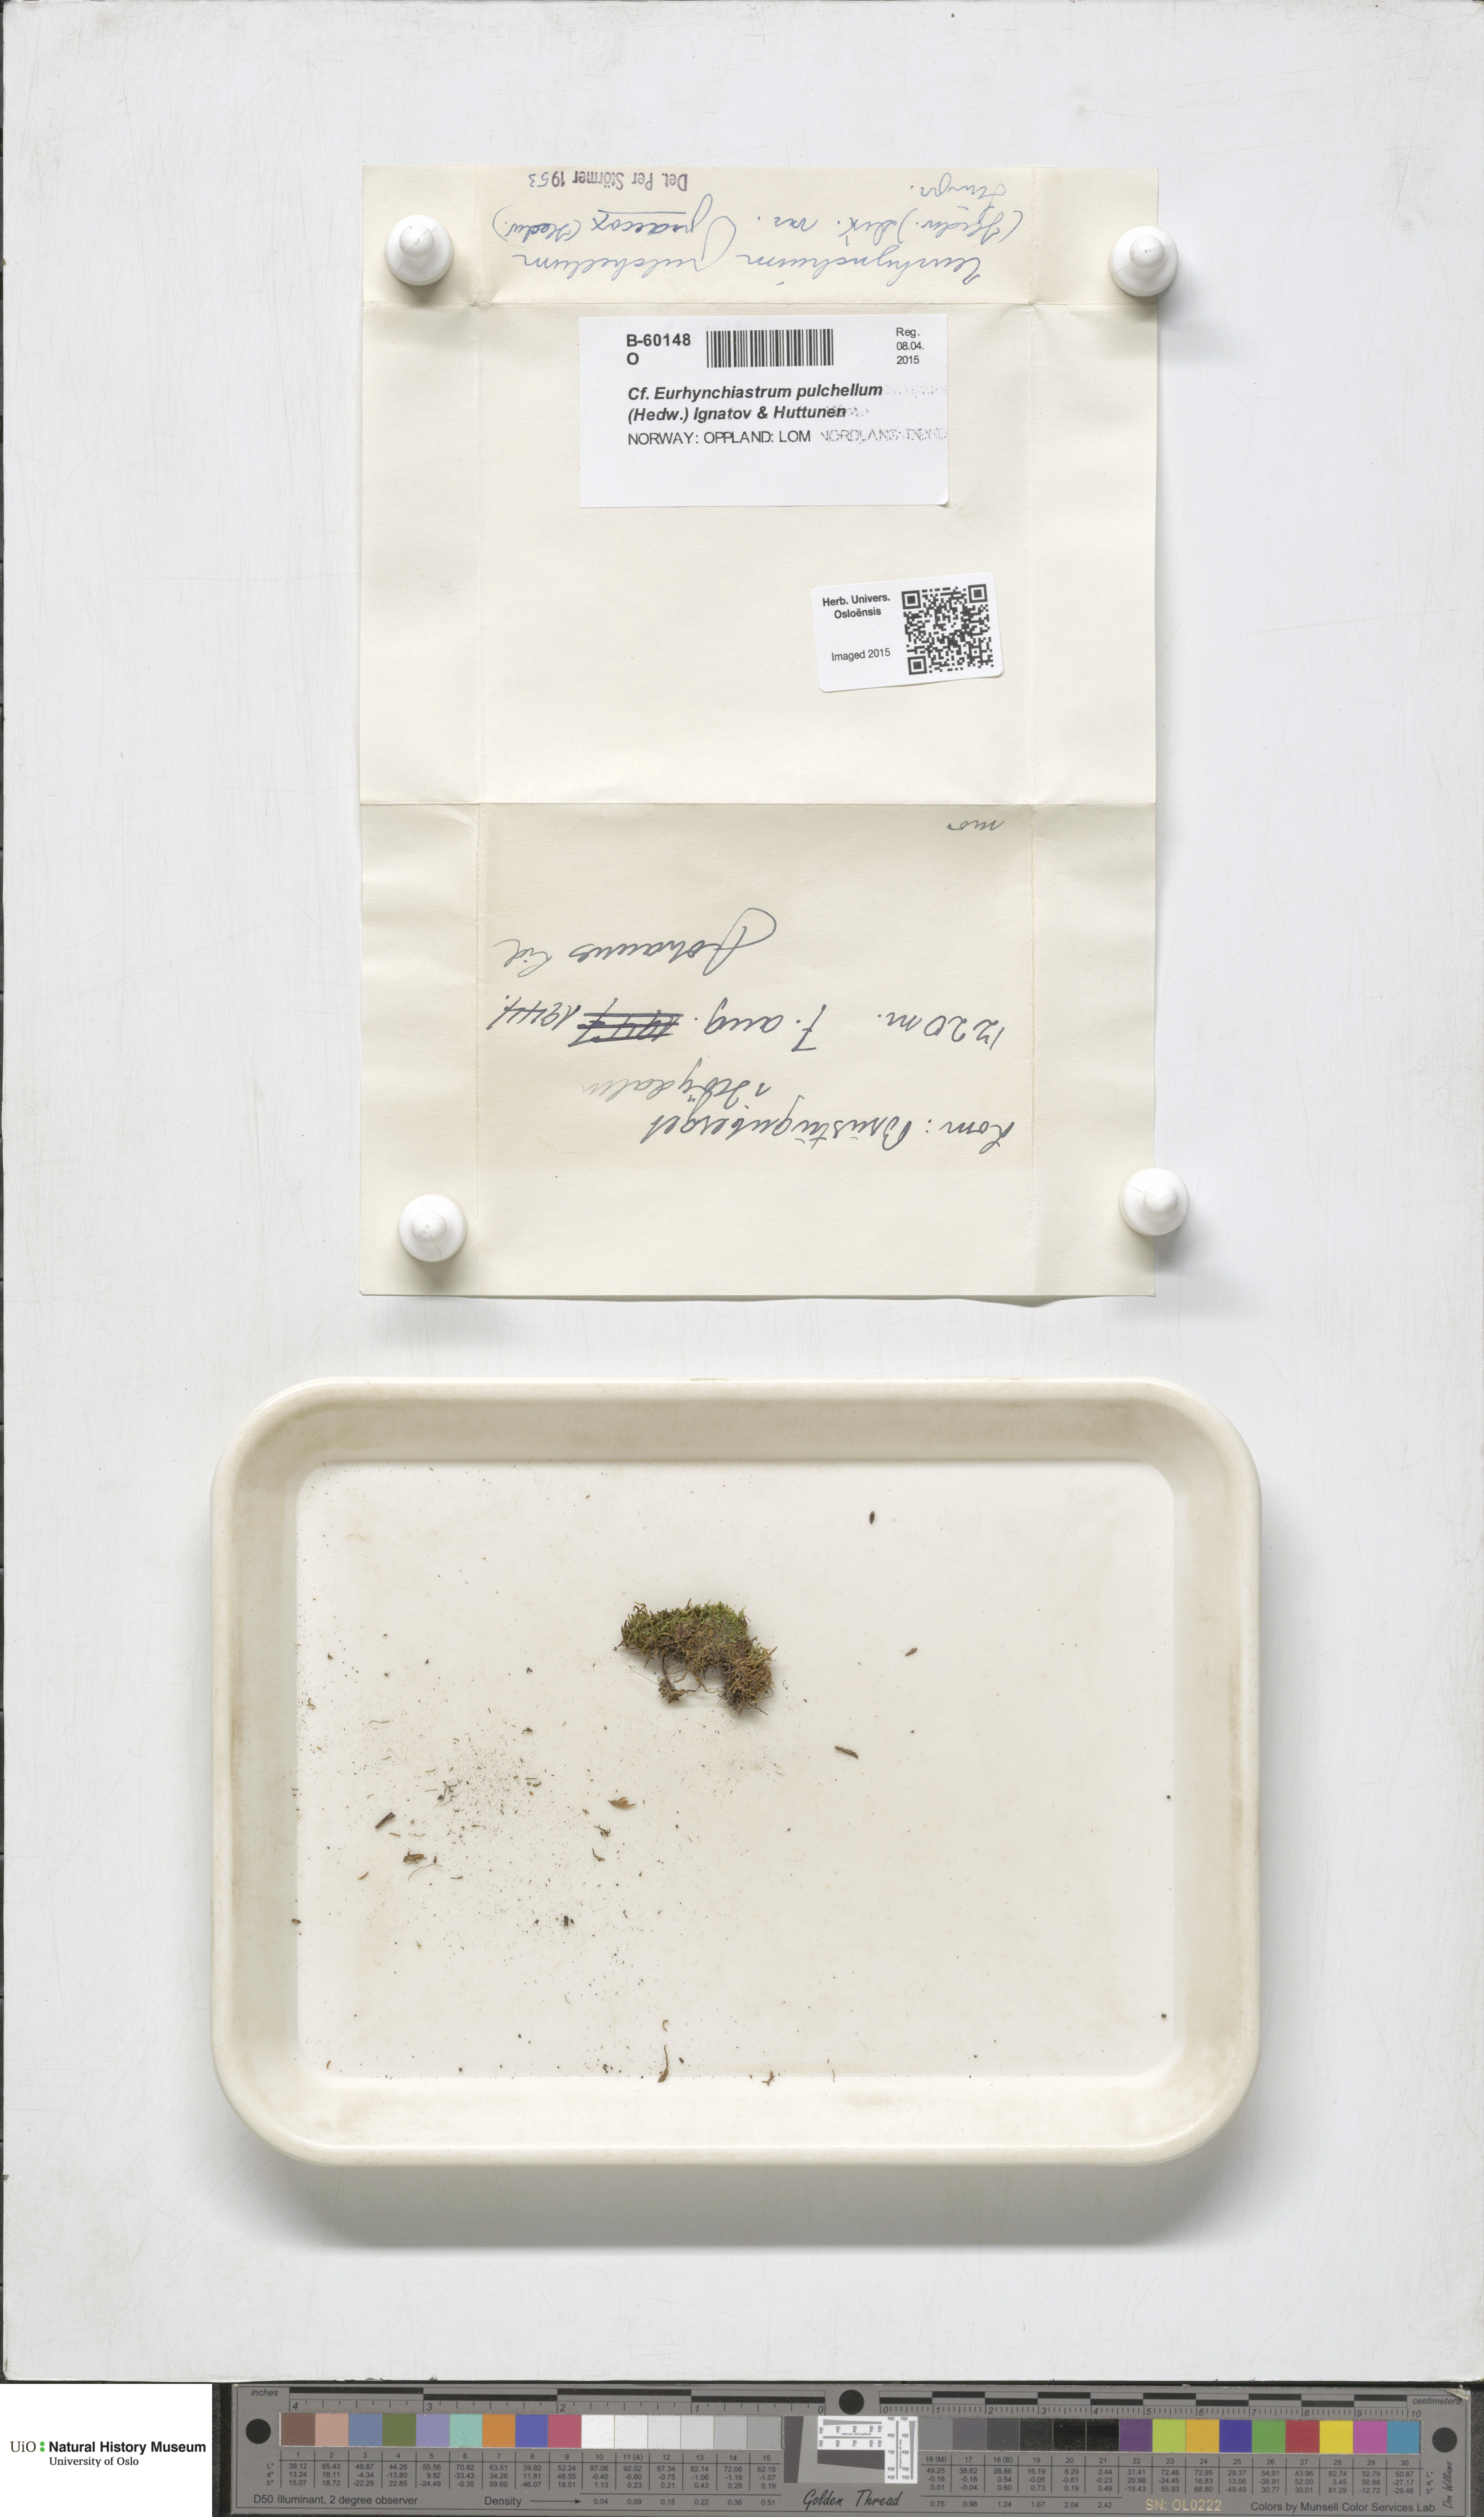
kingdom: Plantae
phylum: Bryophyta
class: Bryopsida
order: Hypnales
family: Brachytheciaceae
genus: Eurhynchiastrum
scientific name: Eurhynchiastrum pulchellum
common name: Elegant beaked moss
